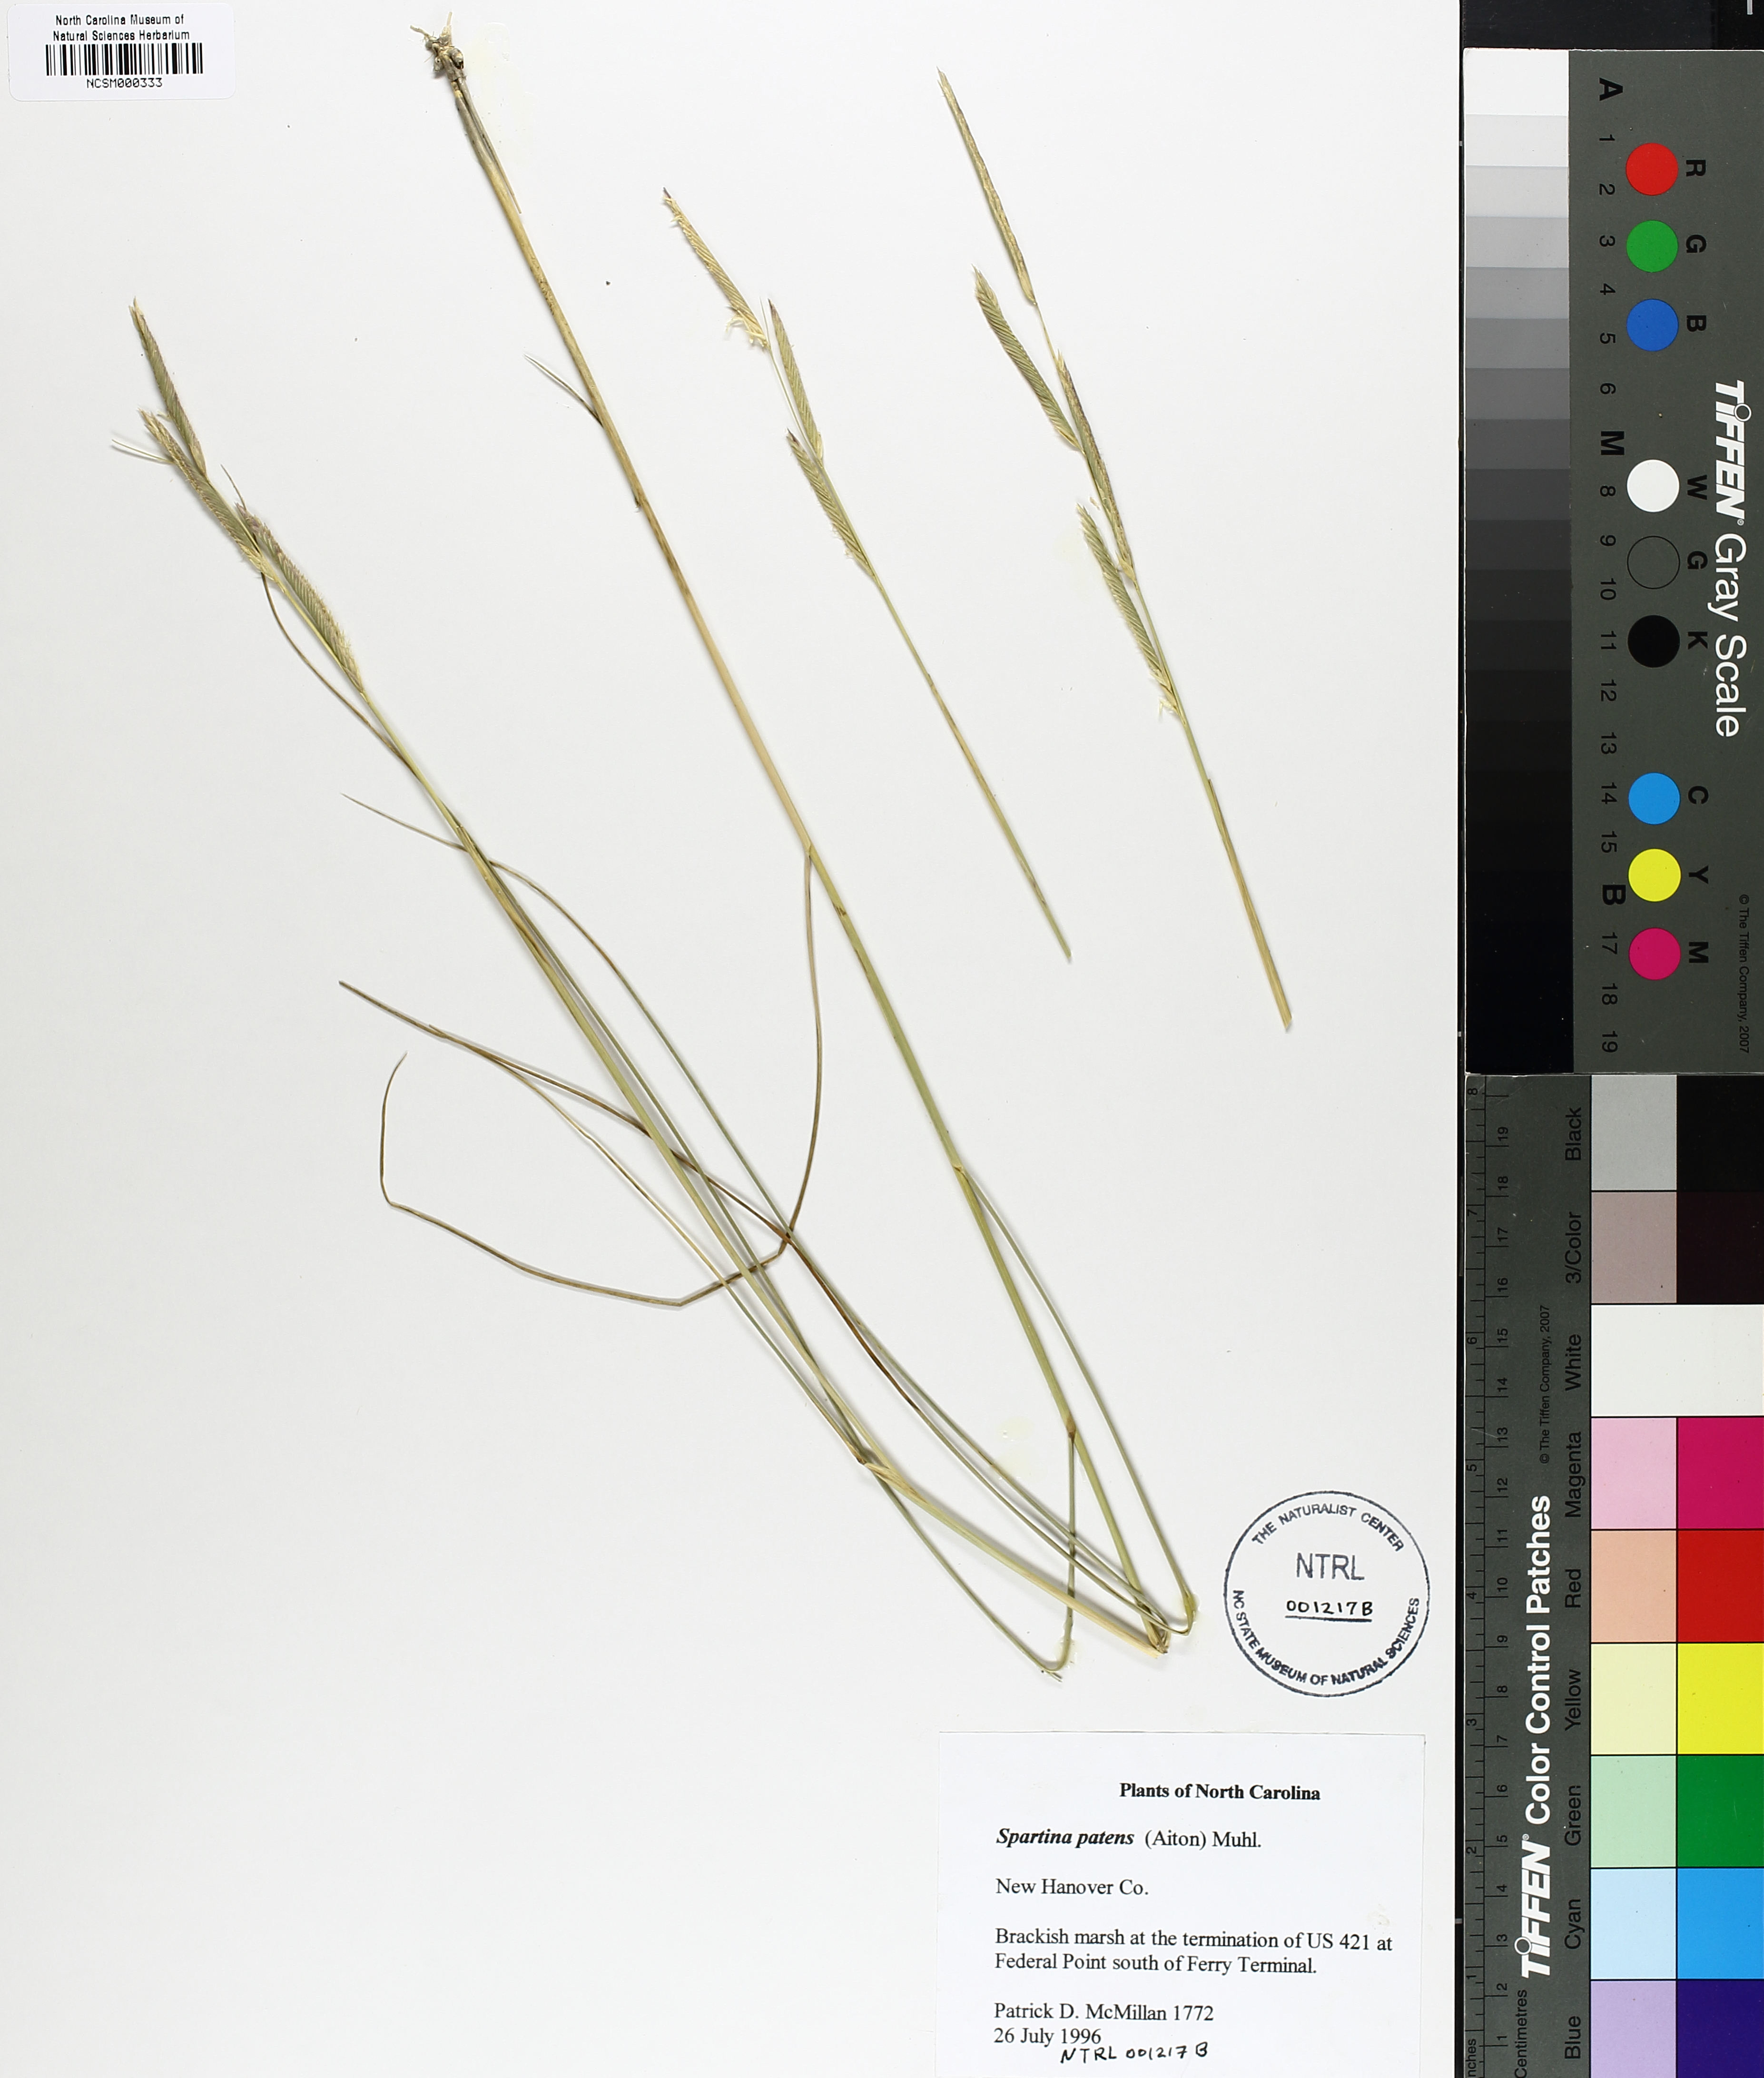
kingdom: Plantae
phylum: Tracheophyta
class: Liliopsida
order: Poales
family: Poaceae
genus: Sporobolus
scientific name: Sporobolus pumilus
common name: Highwater grass
